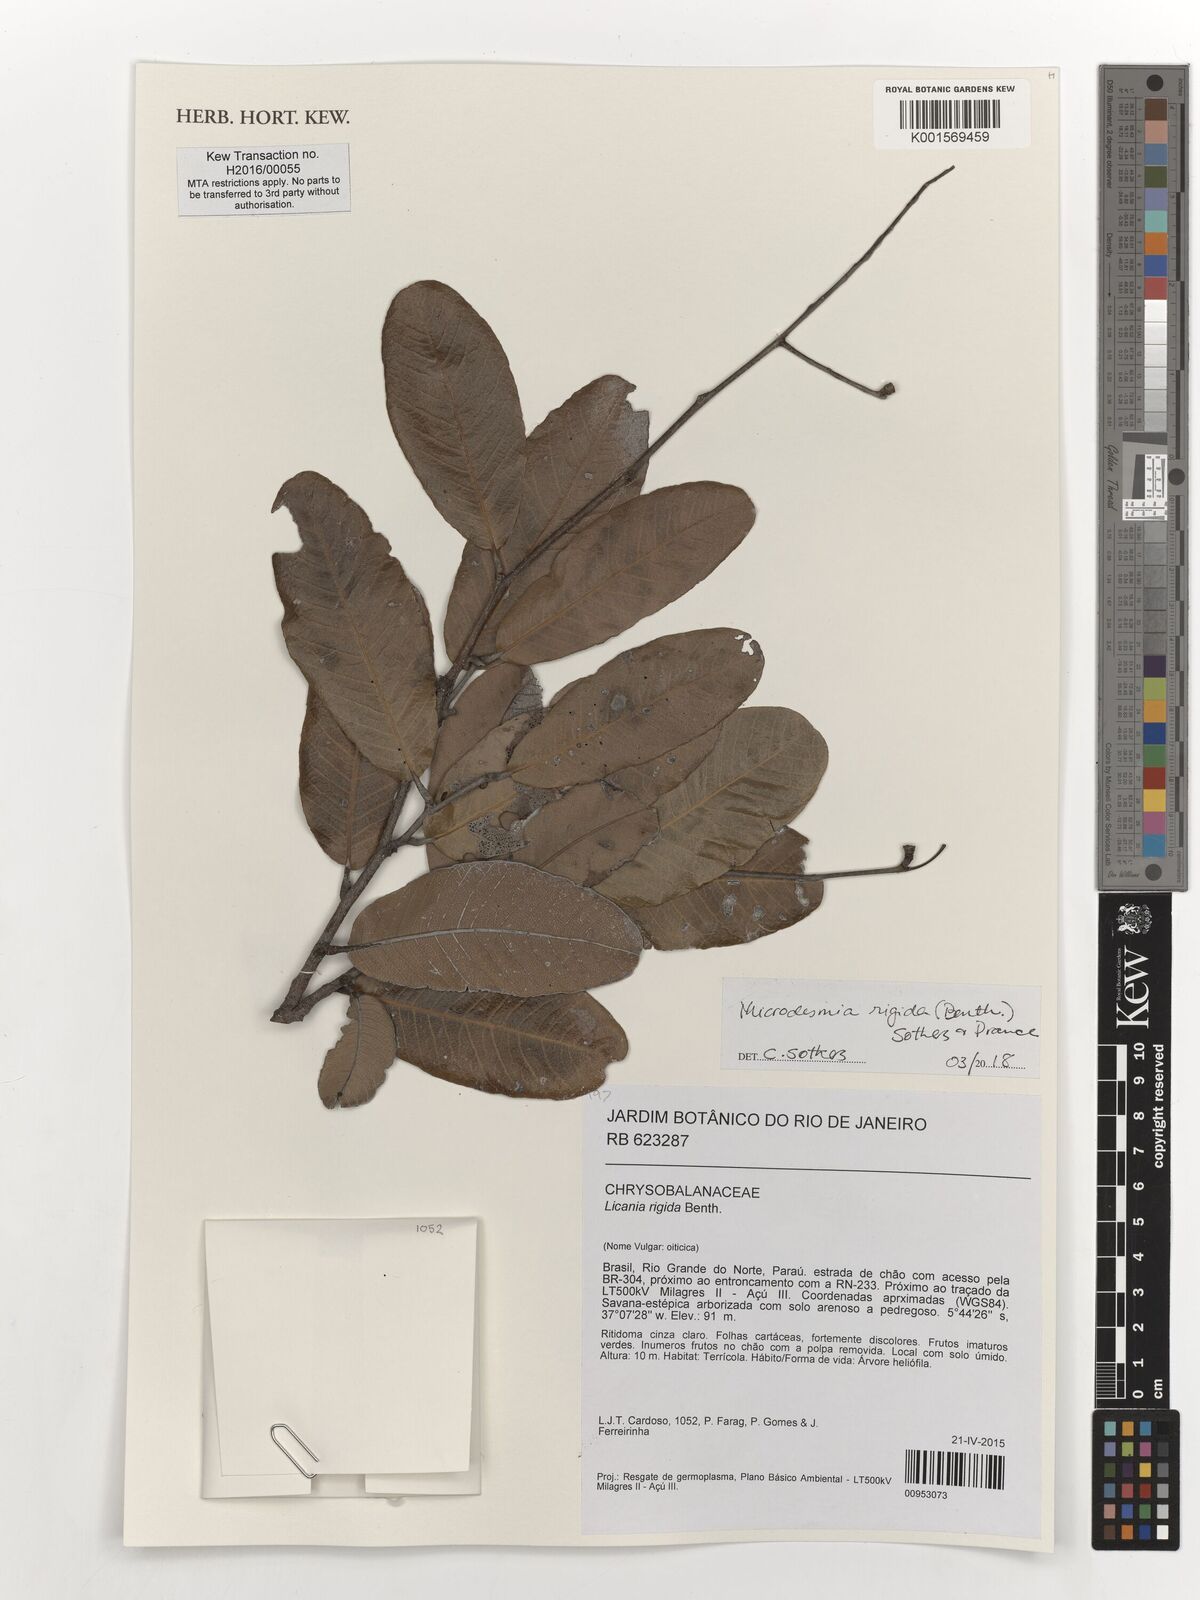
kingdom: Plantae
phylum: Tracheophyta
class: Magnoliopsida
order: Malpighiales
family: Chrysobalanaceae
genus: Microdesmia
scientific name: Microdesmia rigida
